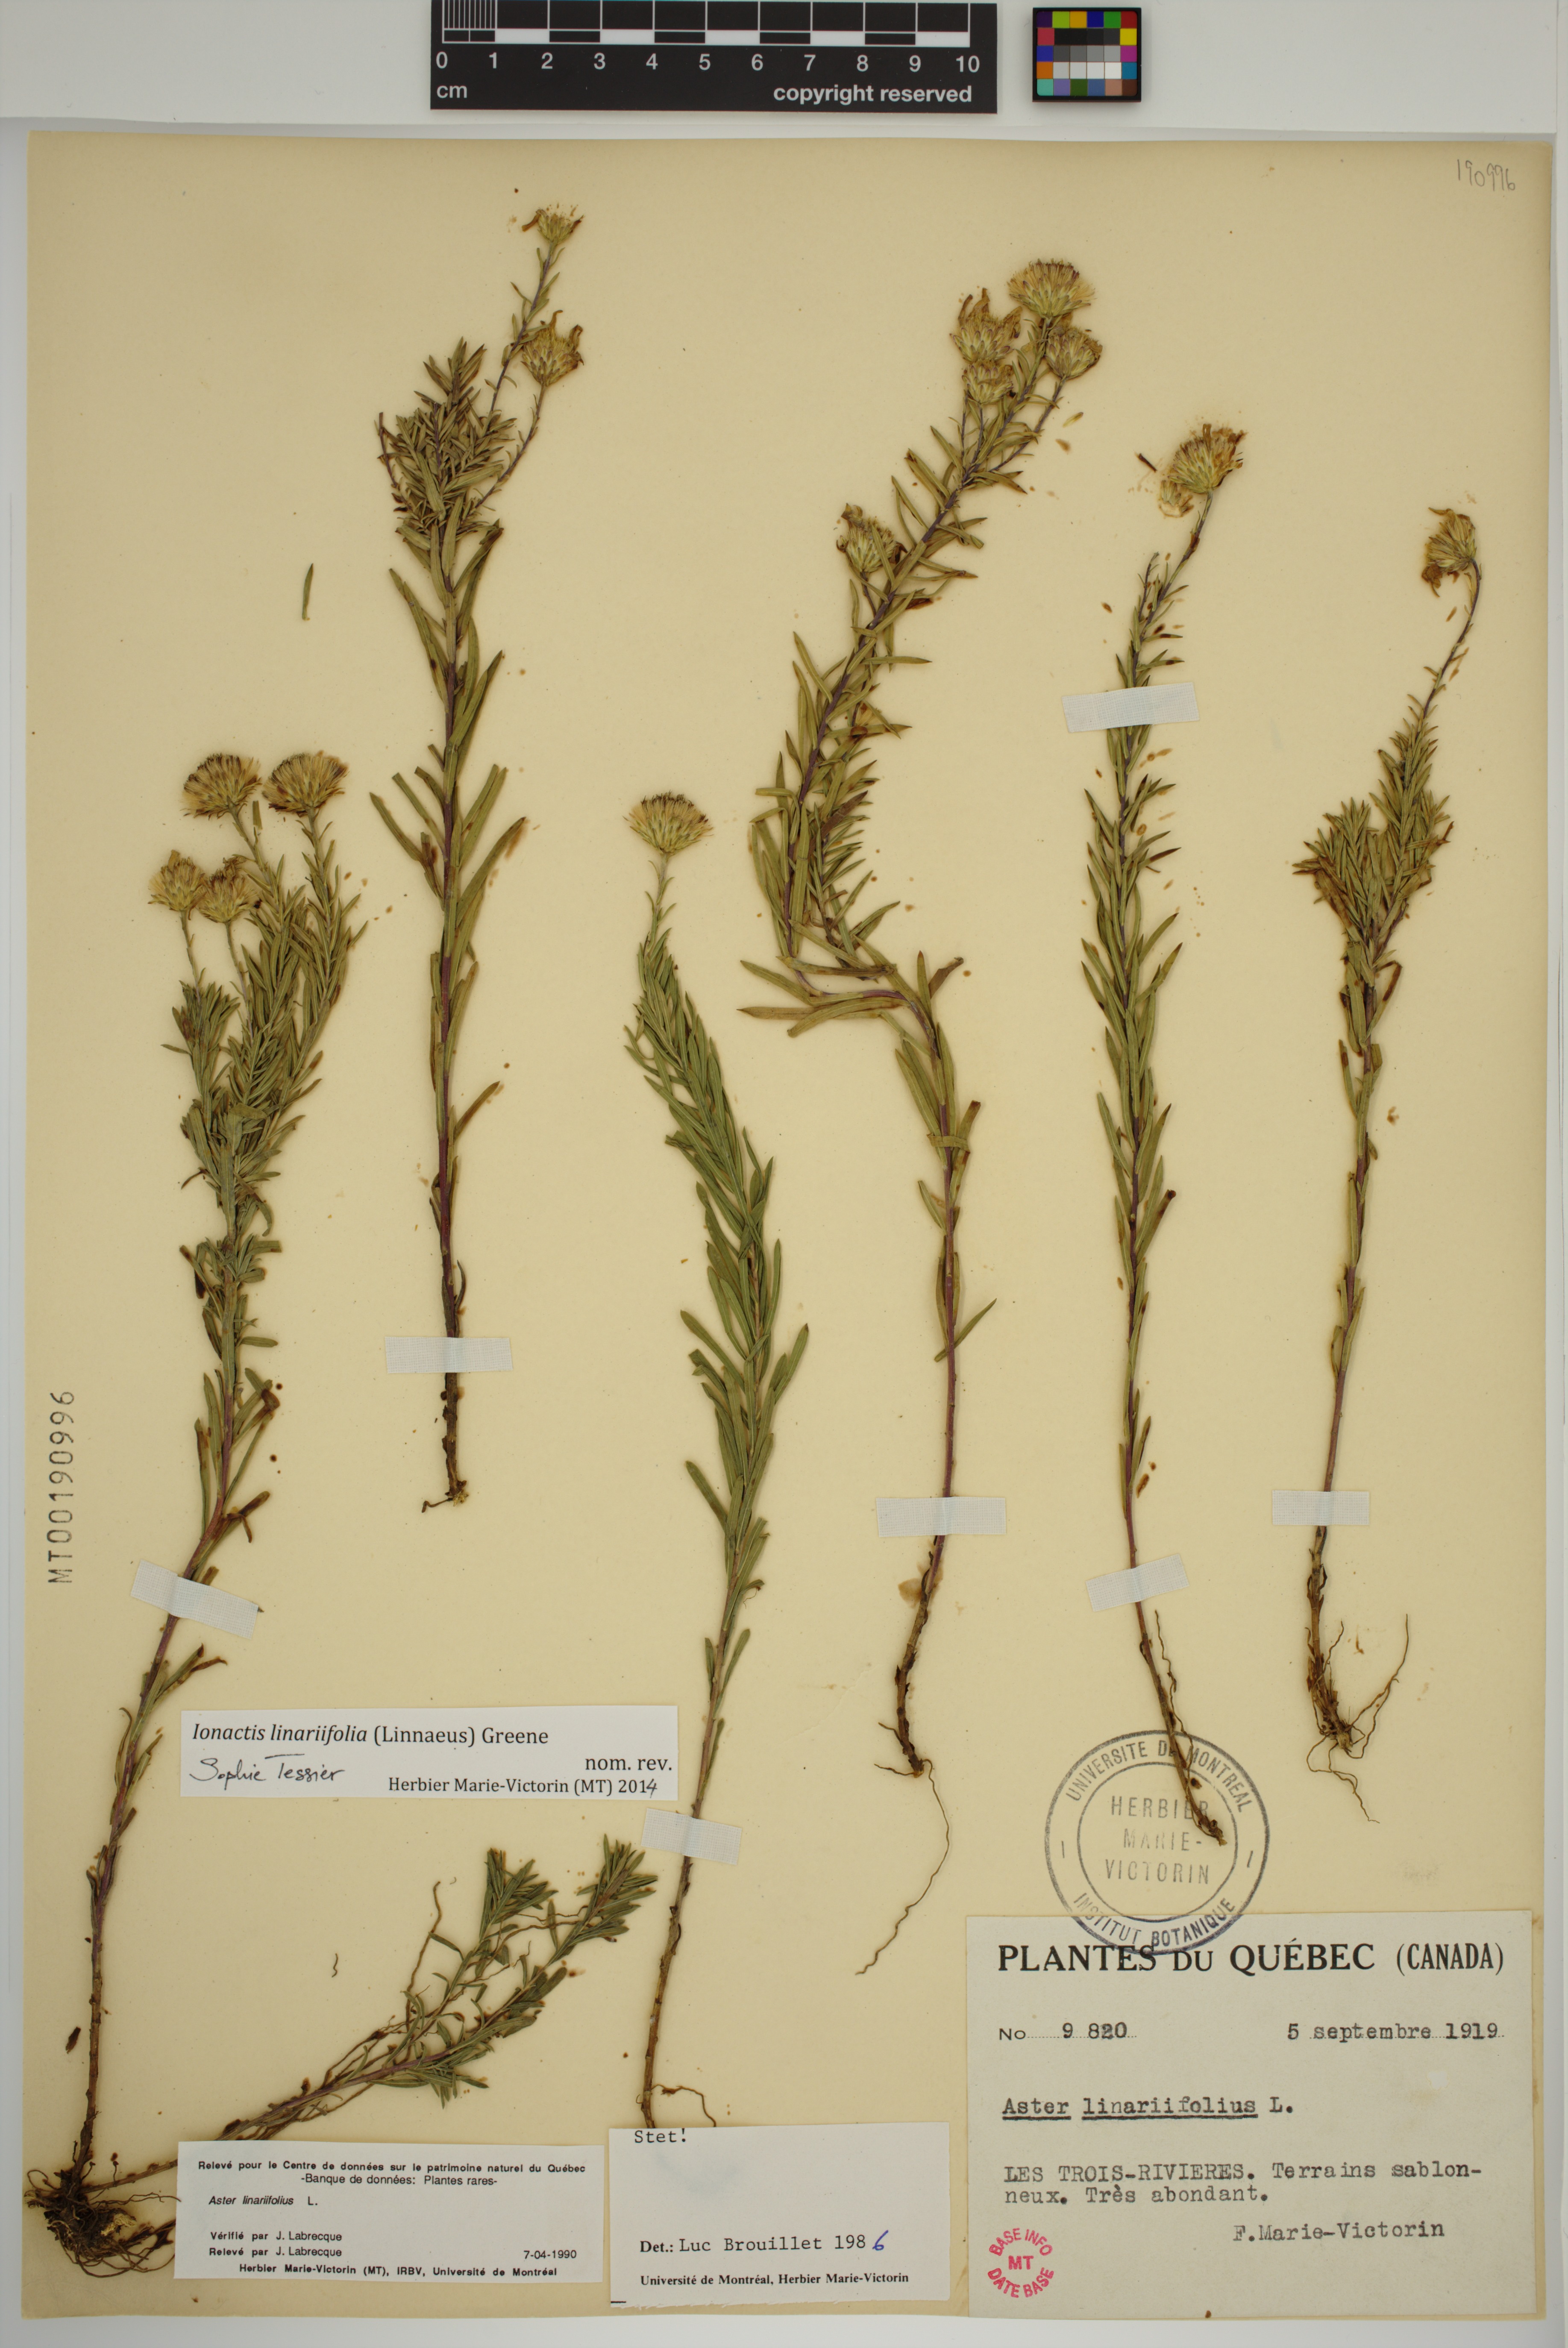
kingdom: Plantae
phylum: Tracheophyta
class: Magnoliopsida
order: Asterales
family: Asteraceae
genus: Ionactis
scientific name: Ionactis linariifolia
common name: Flax-leaf aster
